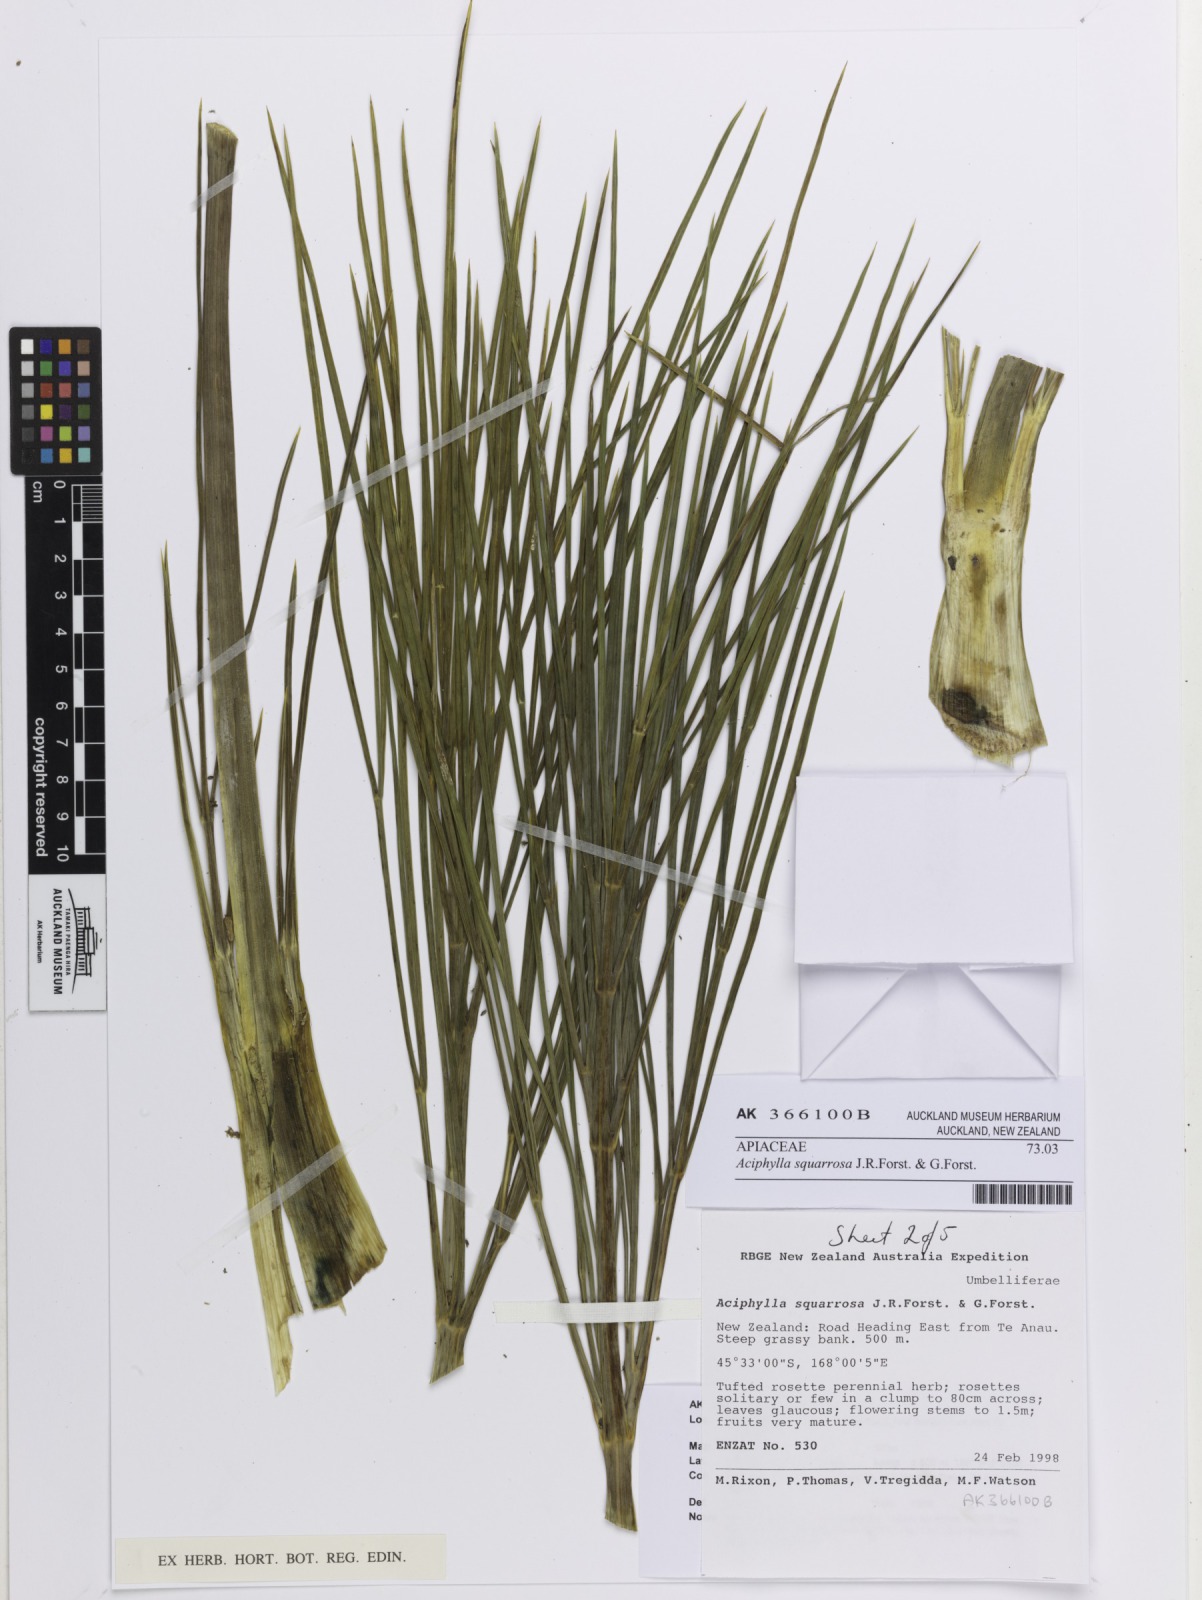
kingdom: Plantae
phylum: Tracheophyta
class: Magnoliopsida
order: Apiales
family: Apiaceae
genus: Aciphylla
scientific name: Aciphylla squarrosa
